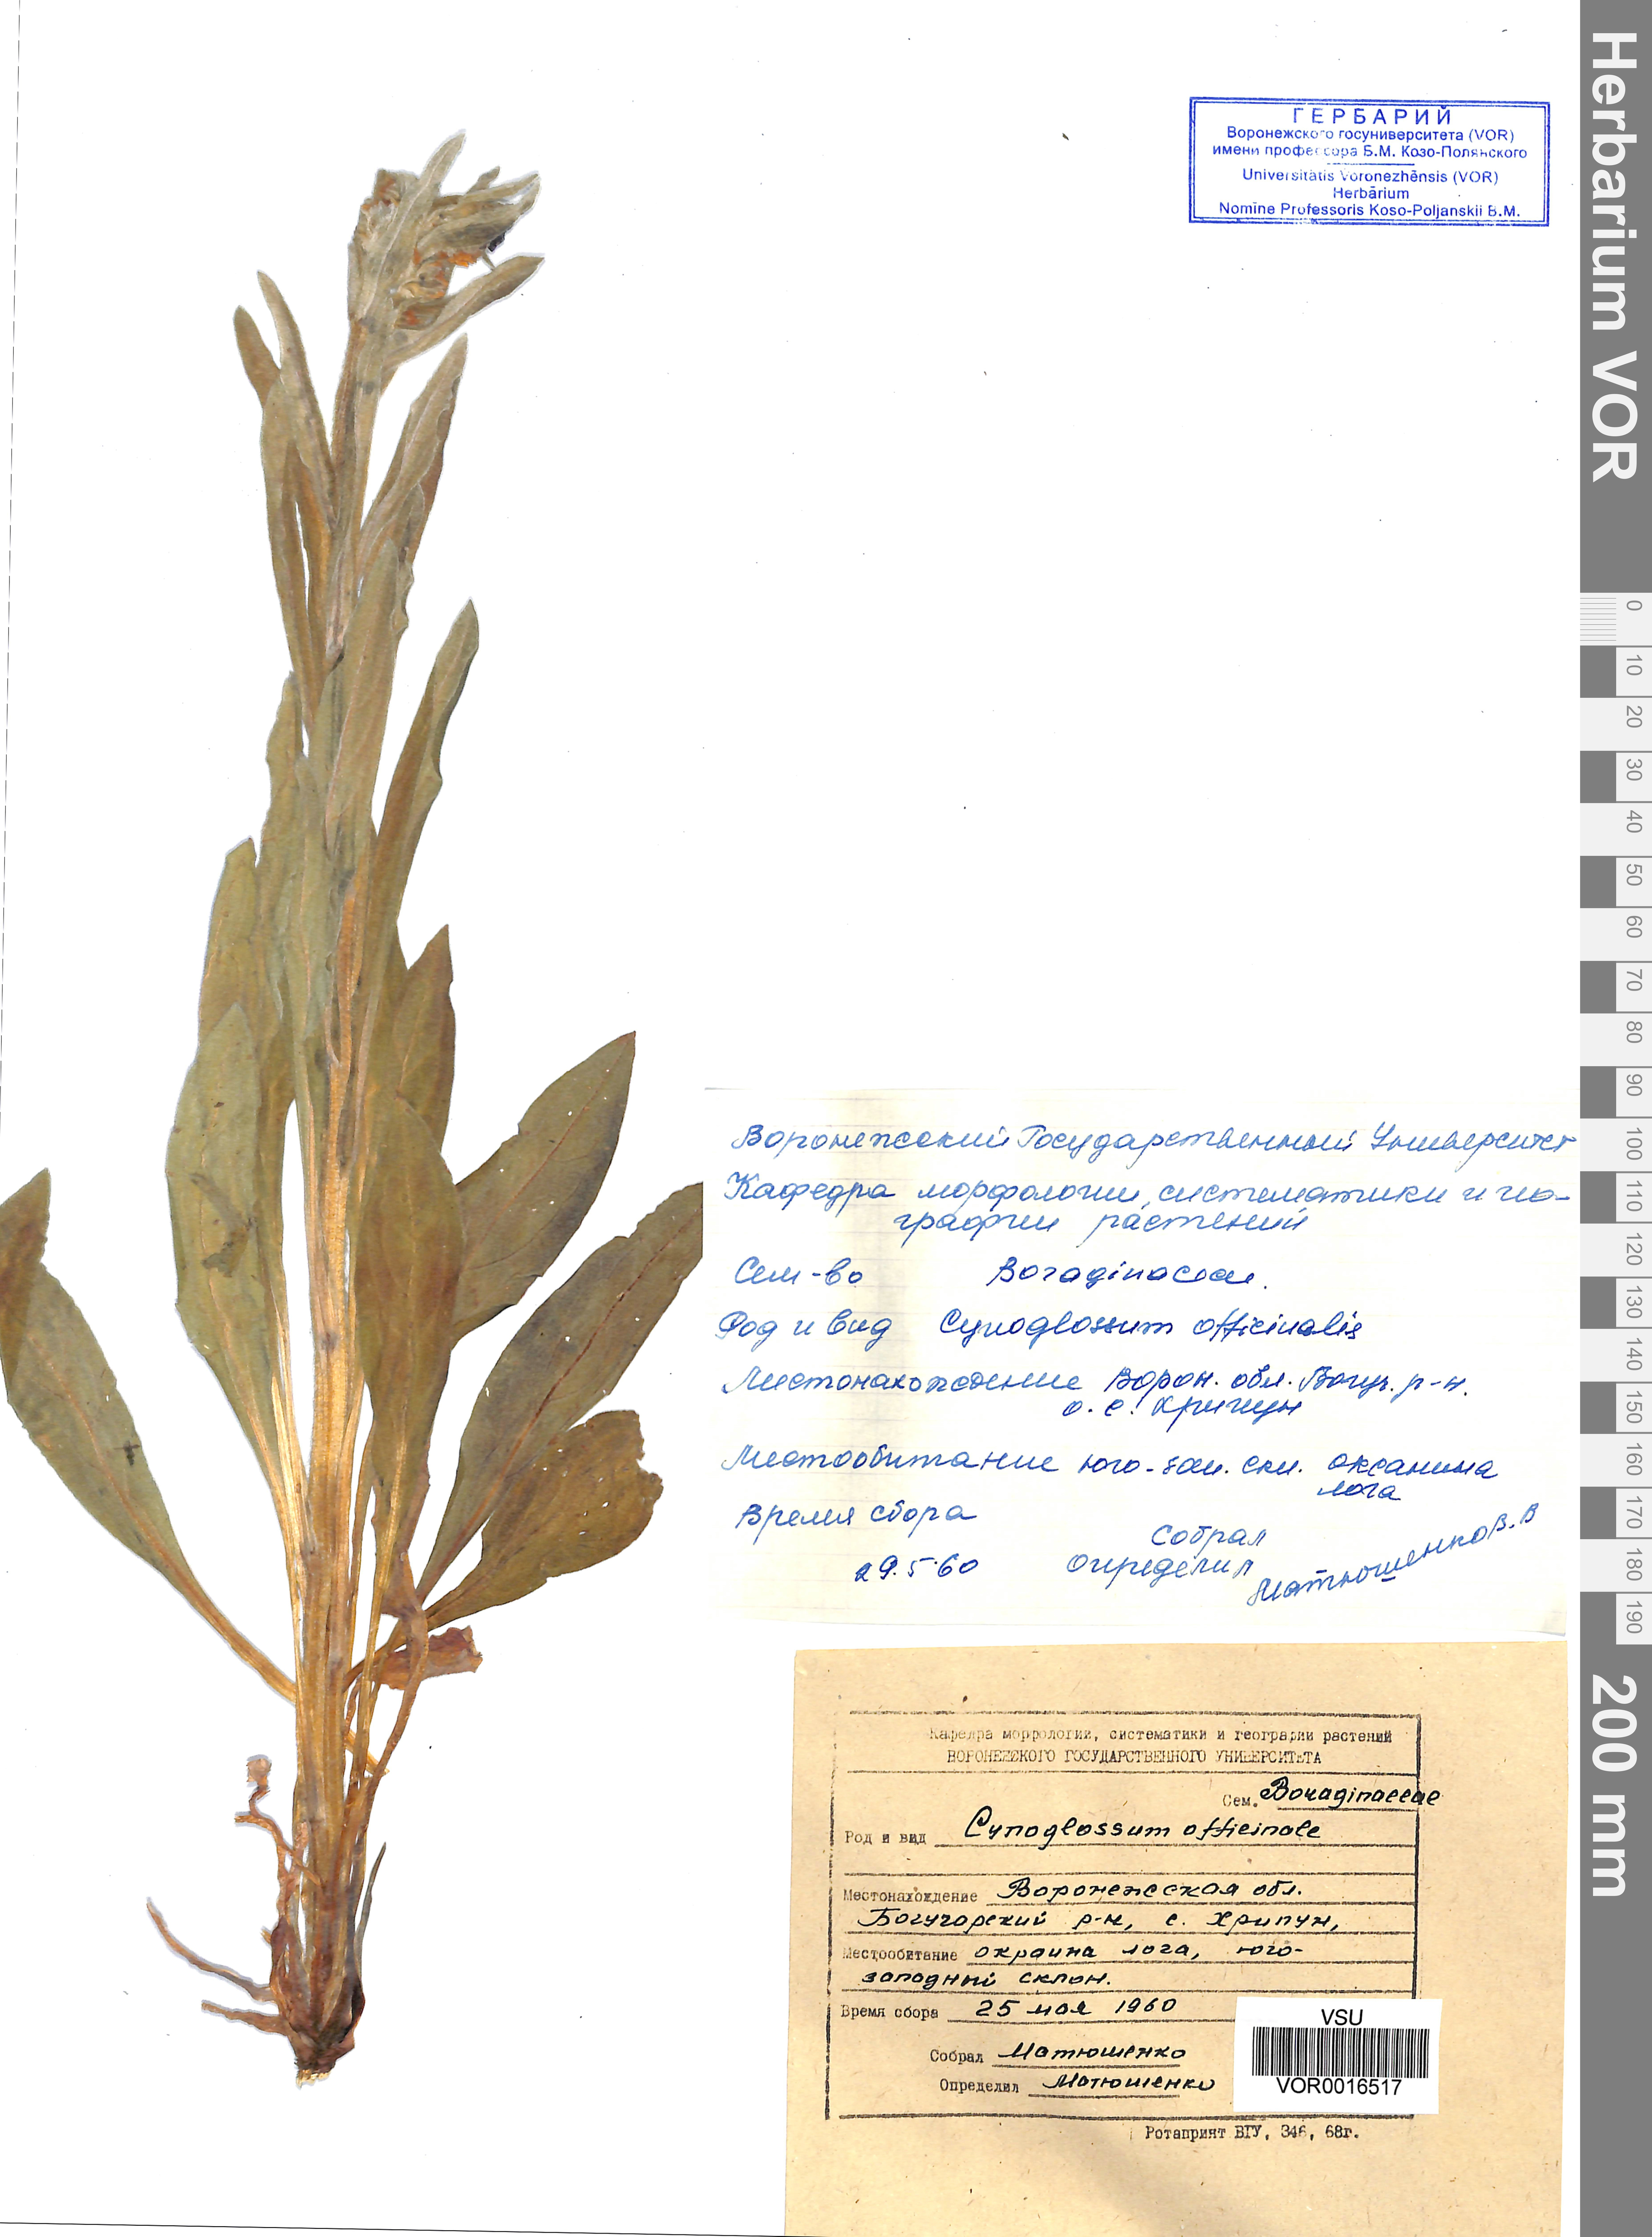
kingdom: Plantae
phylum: Tracheophyta
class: Magnoliopsida
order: Boraginales
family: Boraginaceae
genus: Cynoglossum
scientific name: Cynoglossum officinale
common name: Hound's-tongue
